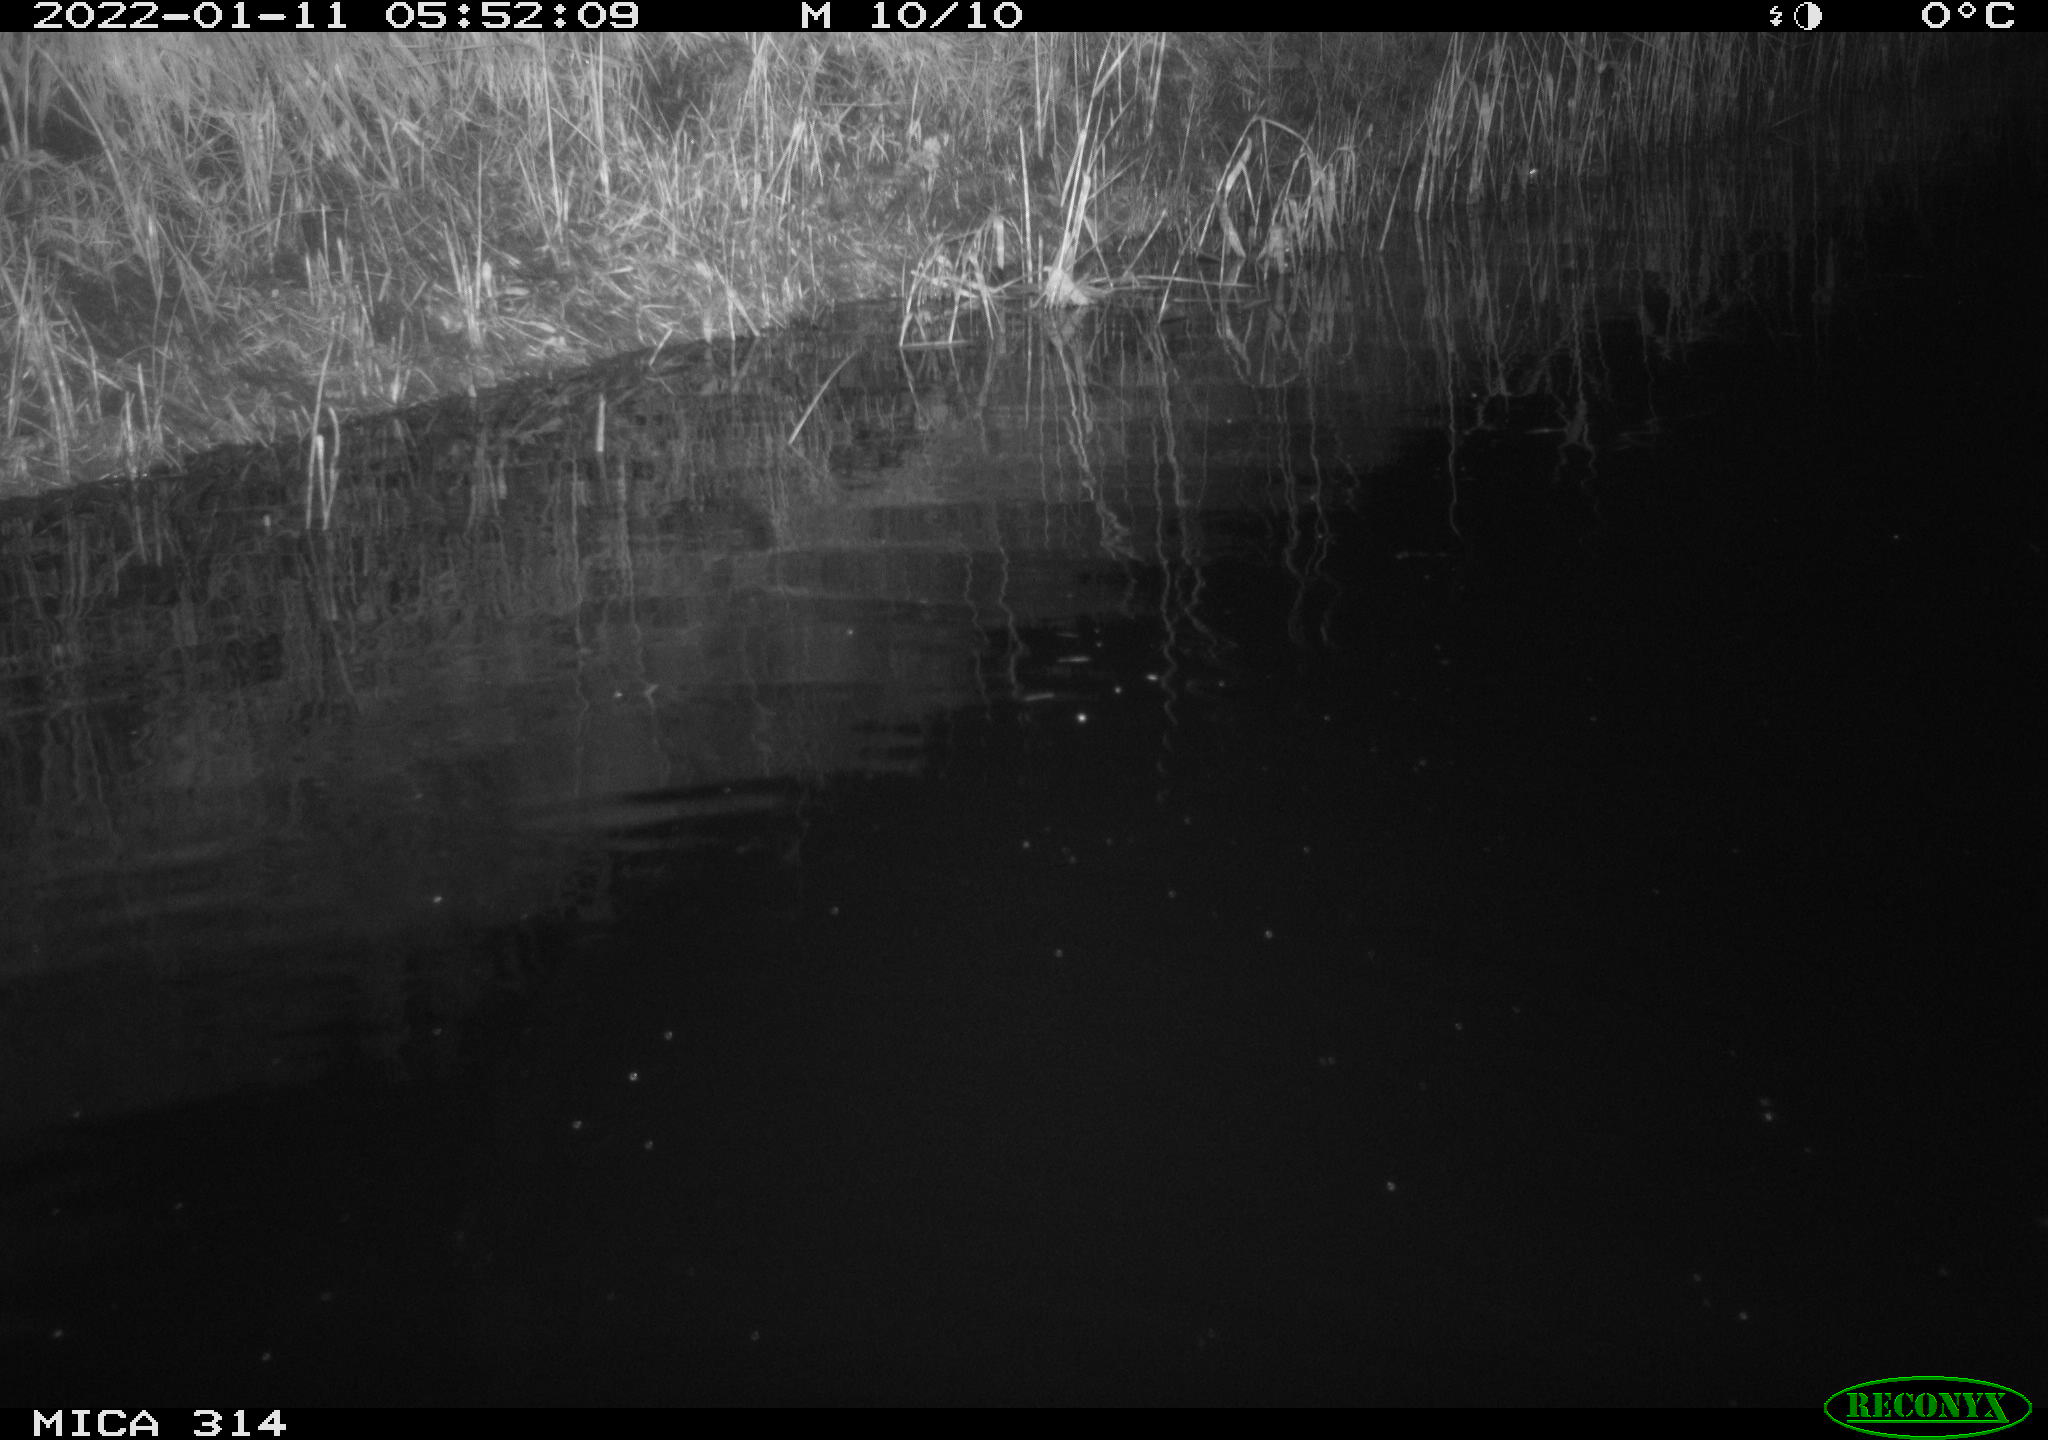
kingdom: Animalia
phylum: Chordata
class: Mammalia
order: Rodentia
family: Cricetidae
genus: Ondatra
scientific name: Ondatra zibethicus
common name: Muskrat
